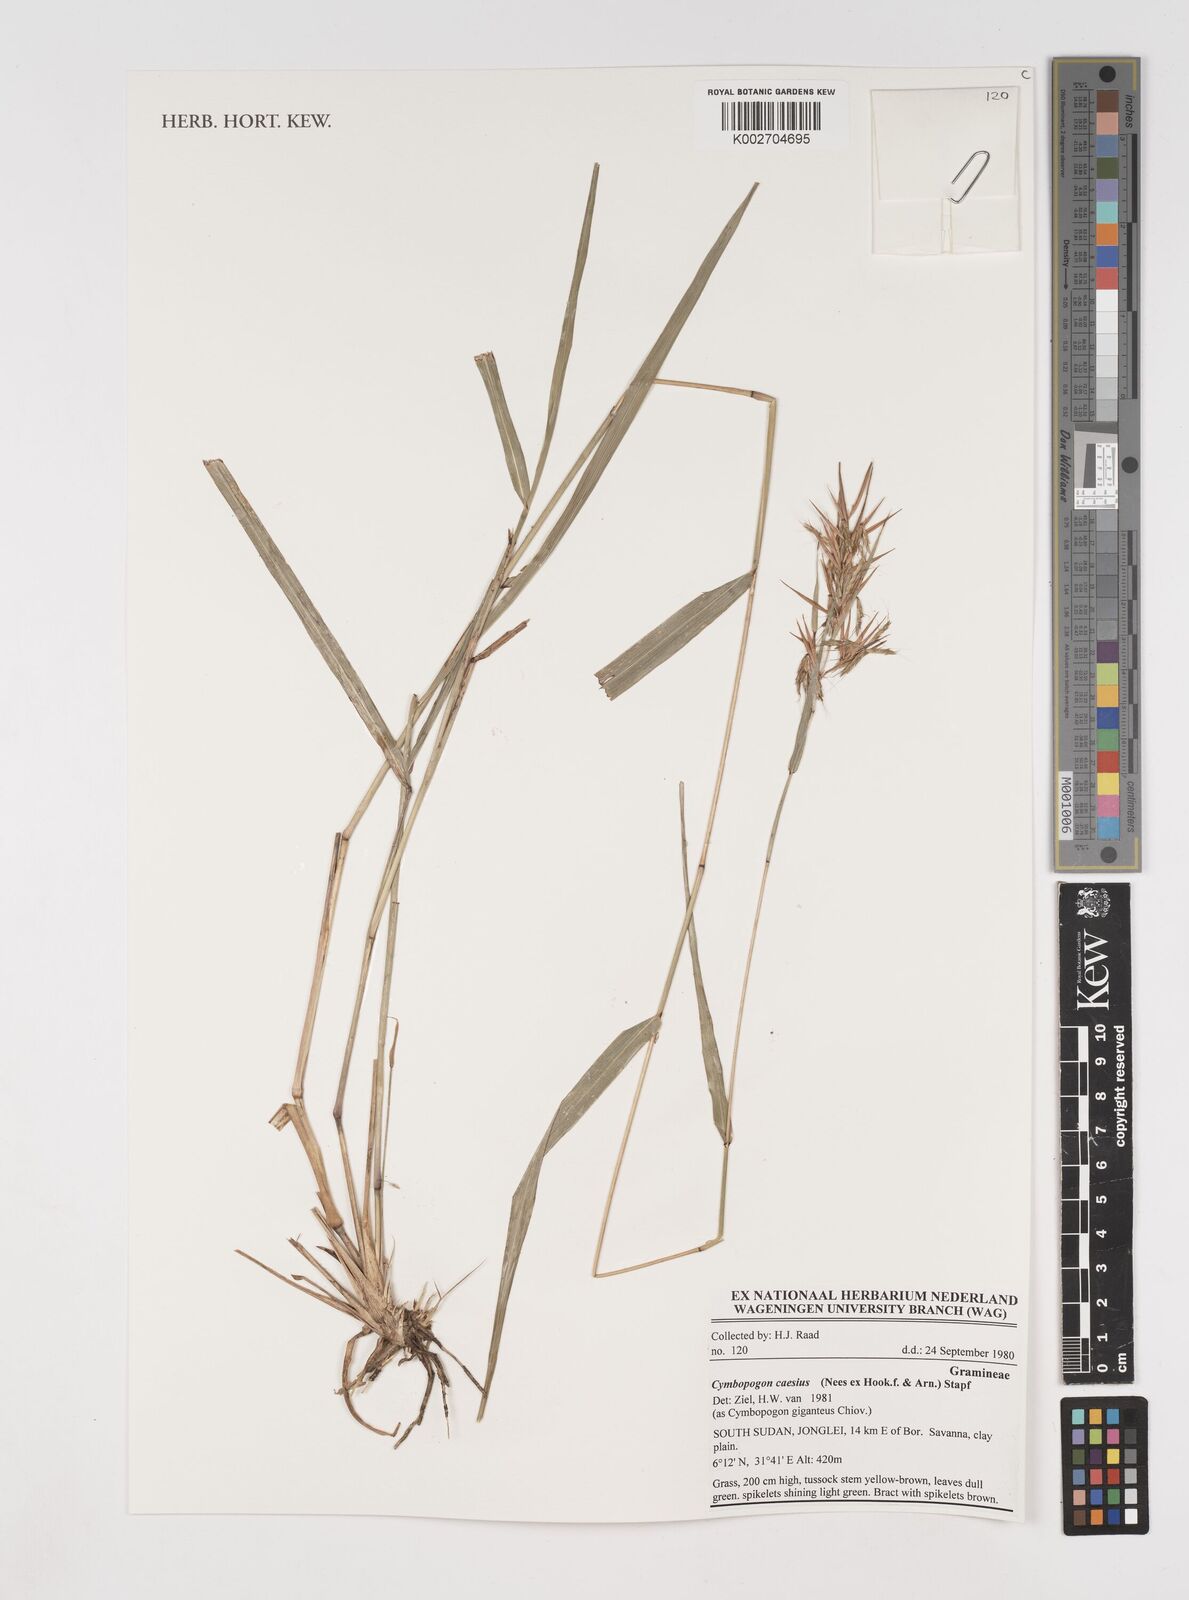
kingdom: Plantae
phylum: Tracheophyta
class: Liliopsida
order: Poales
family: Poaceae
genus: Cymbopogon
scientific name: Cymbopogon caesius
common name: Kachi grass
